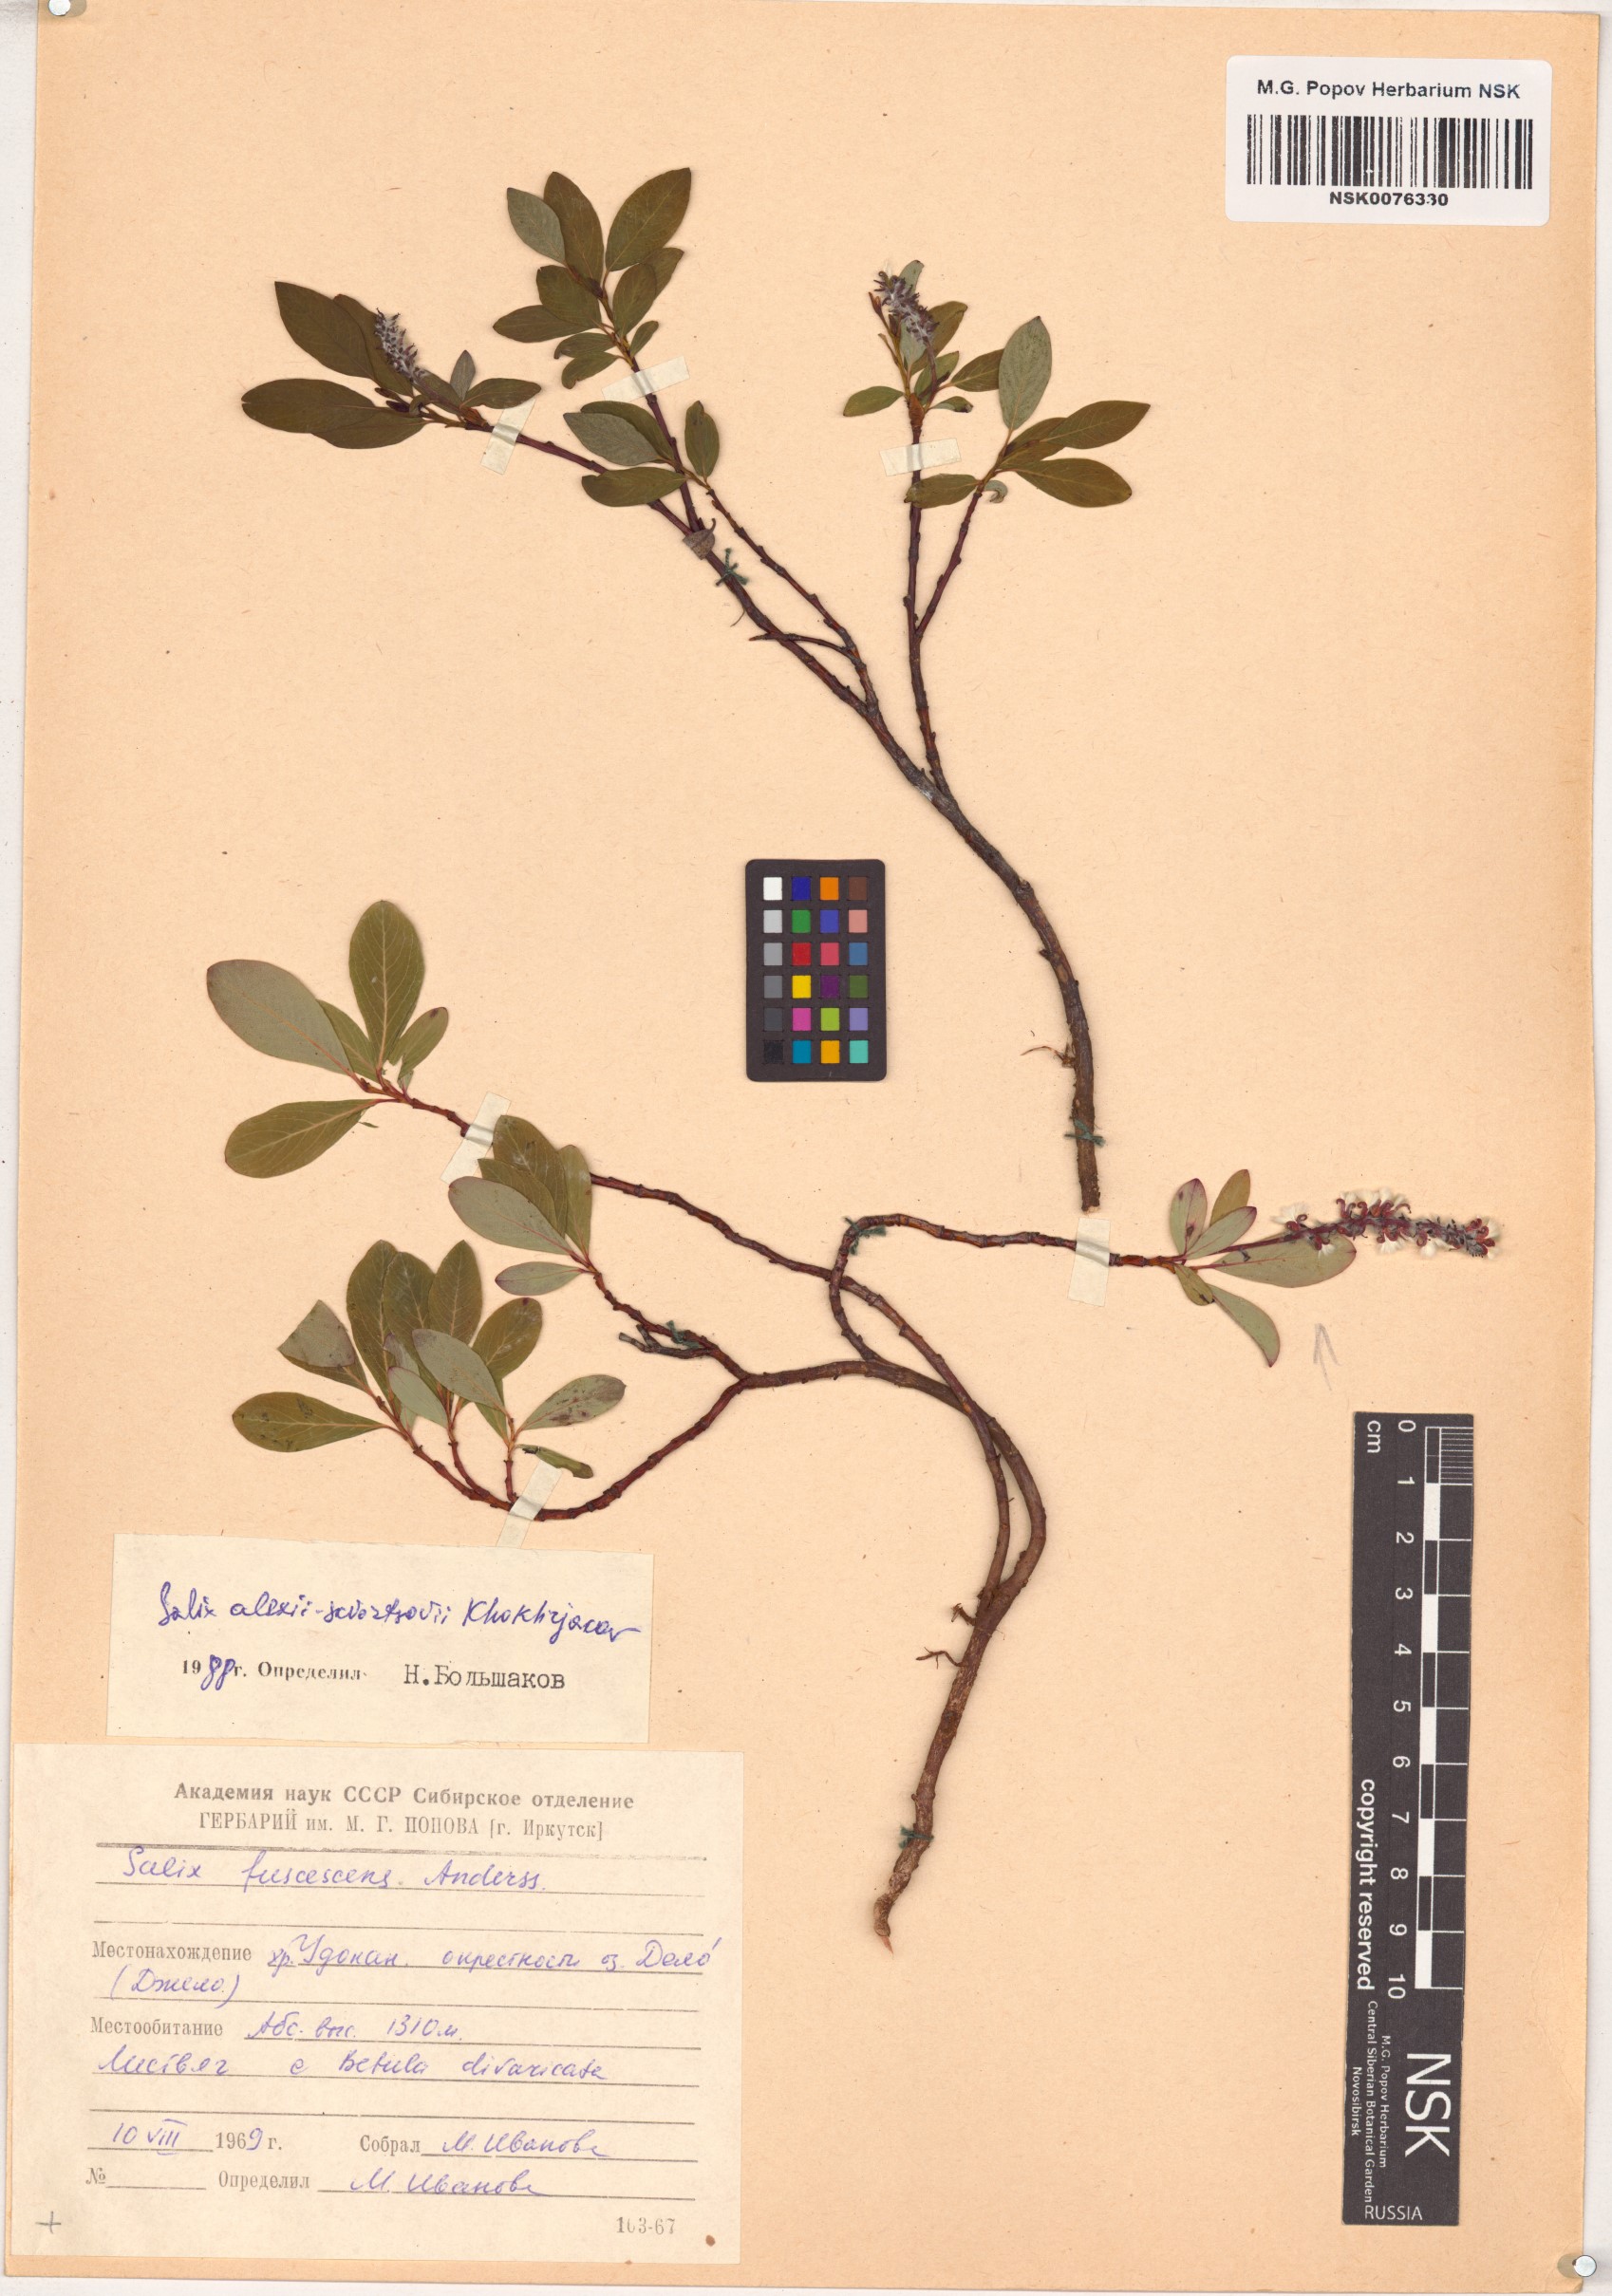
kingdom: Plantae
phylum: Tracheophyta
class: Magnoliopsida
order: Malpighiales
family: Salicaceae
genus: Salix
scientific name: Salix alexii-skvortzovii
